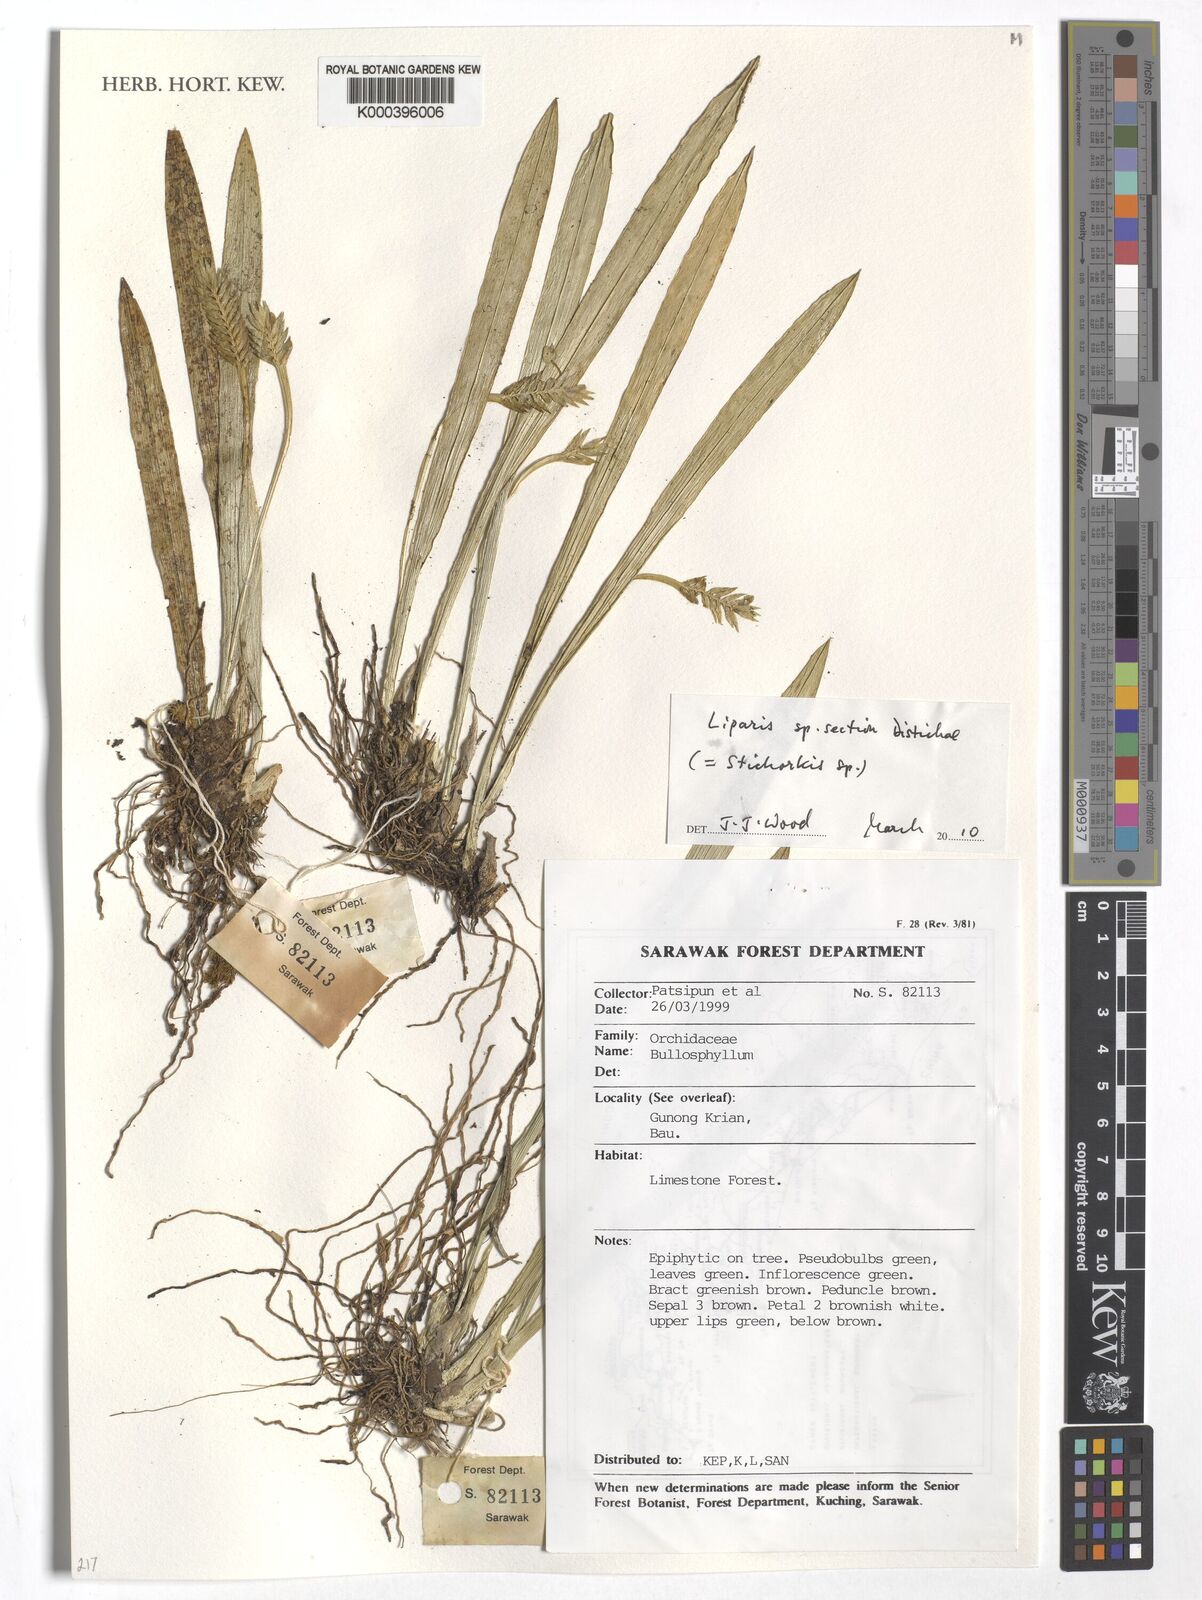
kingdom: Plantae
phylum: Tracheophyta
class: Liliopsida
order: Asparagales
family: Orchidaceae
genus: Liparis
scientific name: Liparis
